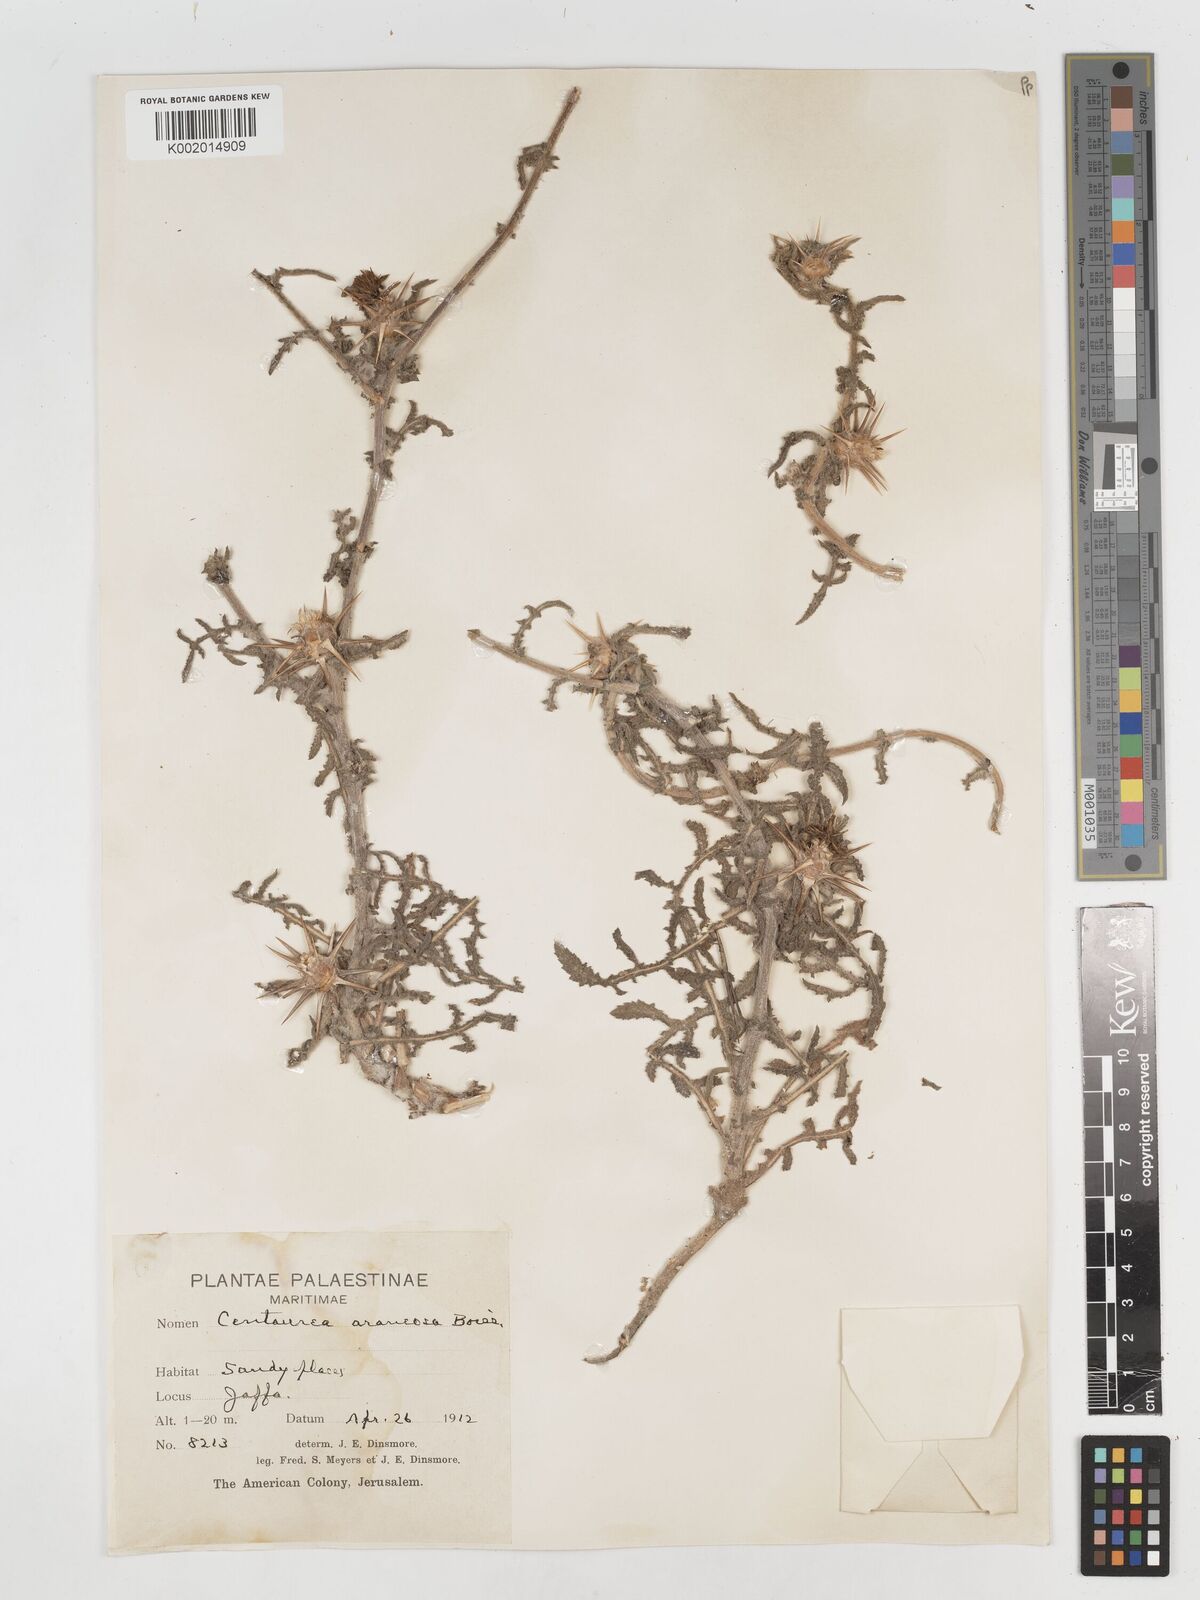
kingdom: Plantae
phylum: Tracheophyta
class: Magnoliopsida
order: Asterales
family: Asteraceae
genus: Centaurea
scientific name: Centaurea procurrens
